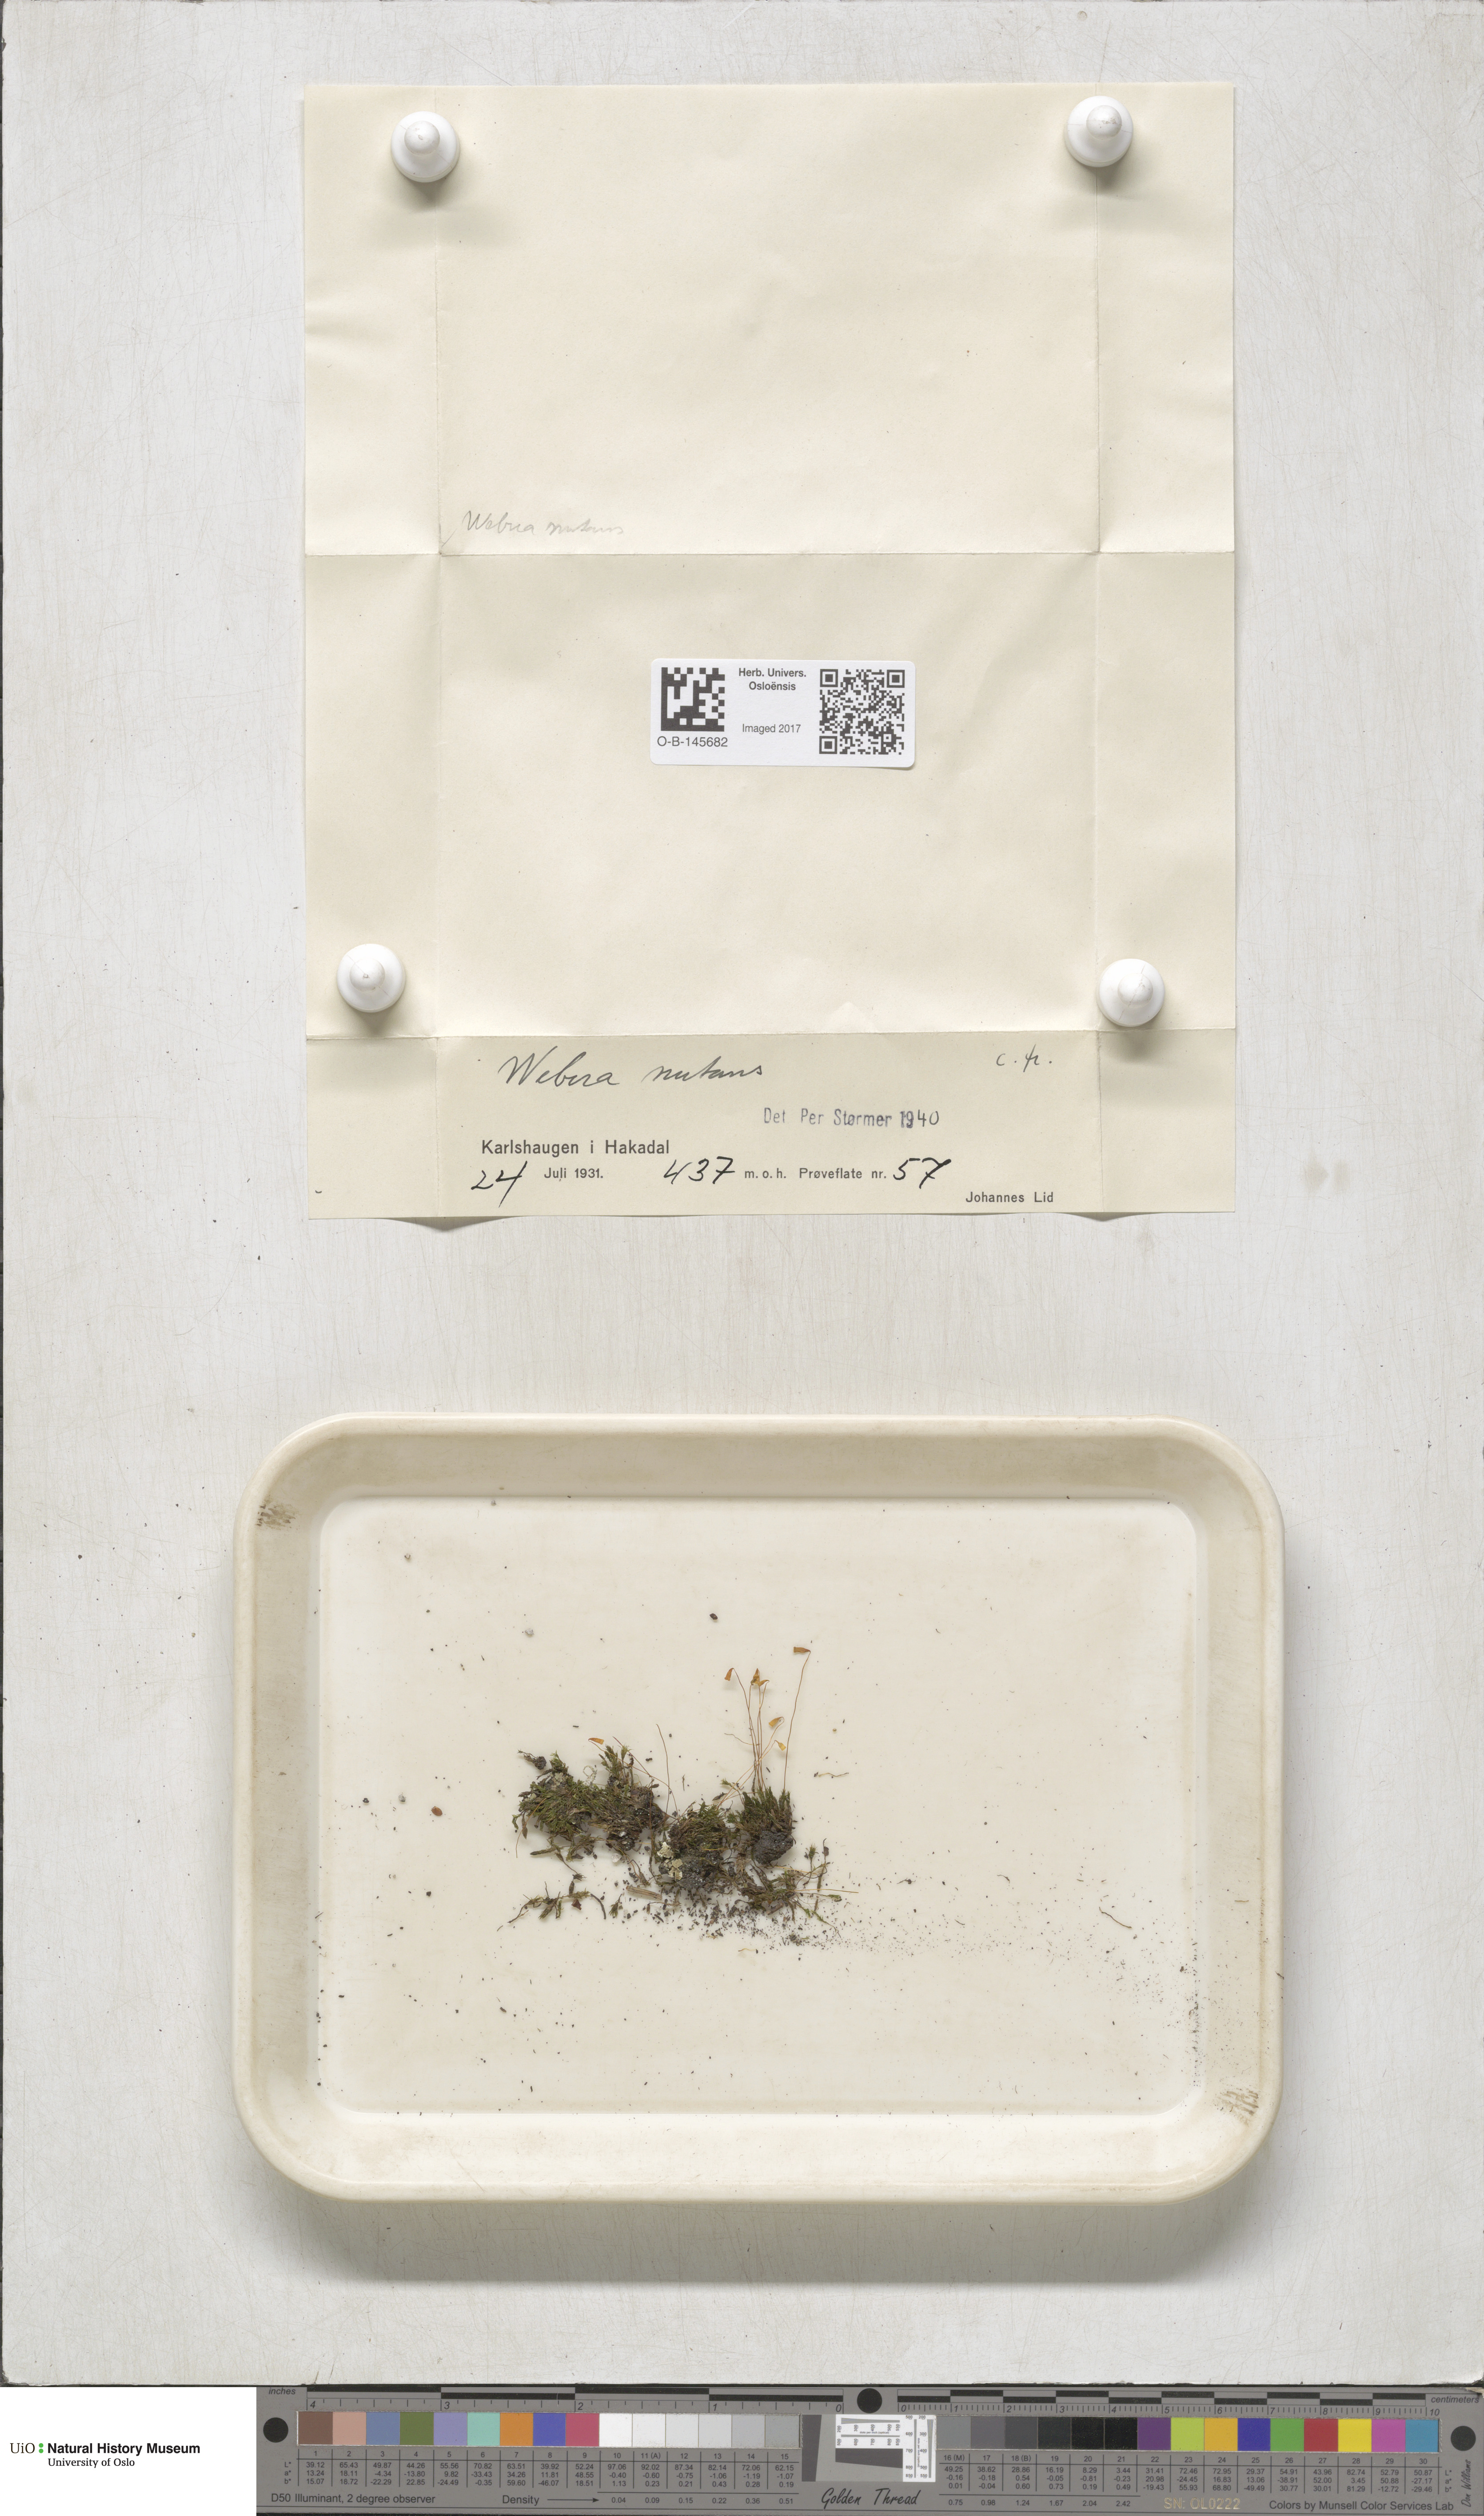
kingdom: Plantae
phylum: Bryophyta
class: Bryopsida
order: Bryales
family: Mniaceae
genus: Pohlia
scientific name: Pohlia nutans
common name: Nodding thread-moss
